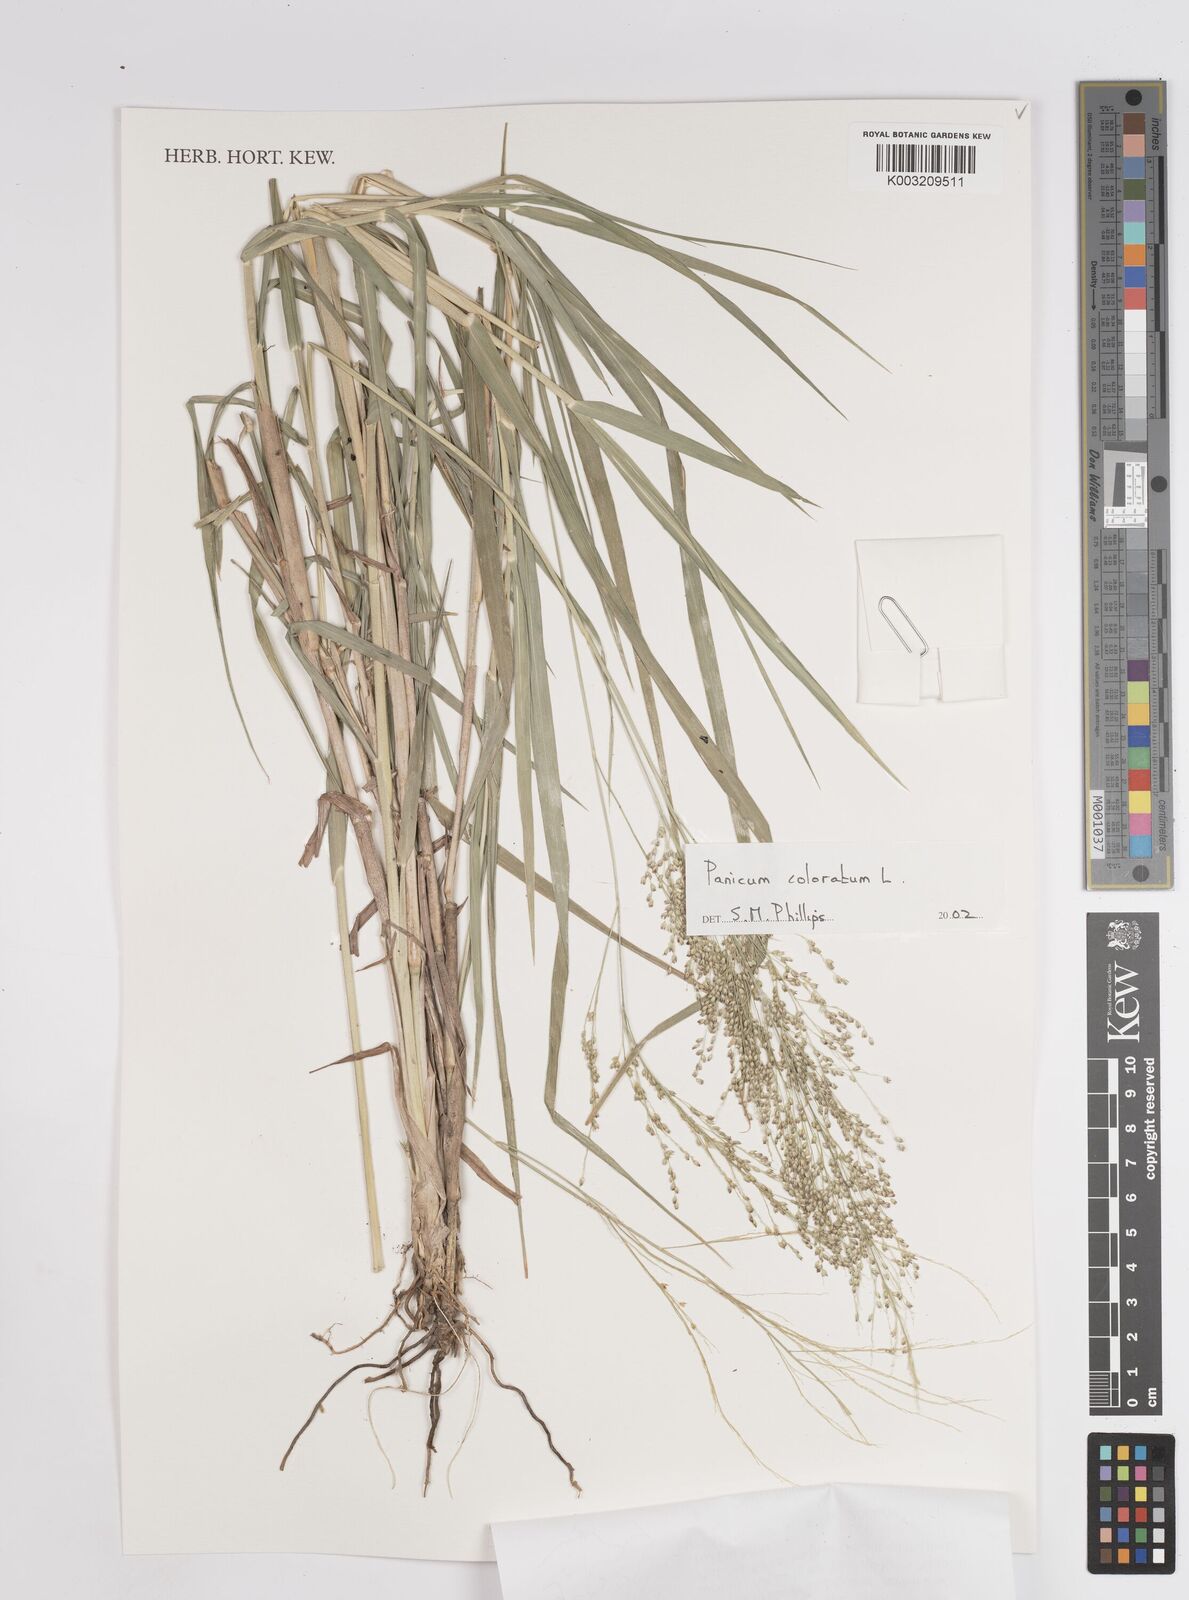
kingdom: Plantae
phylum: Tracheophyta
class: Liliopsida
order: Poales
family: Poaceae
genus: Tricholaena
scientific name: Tricholaena monachne
